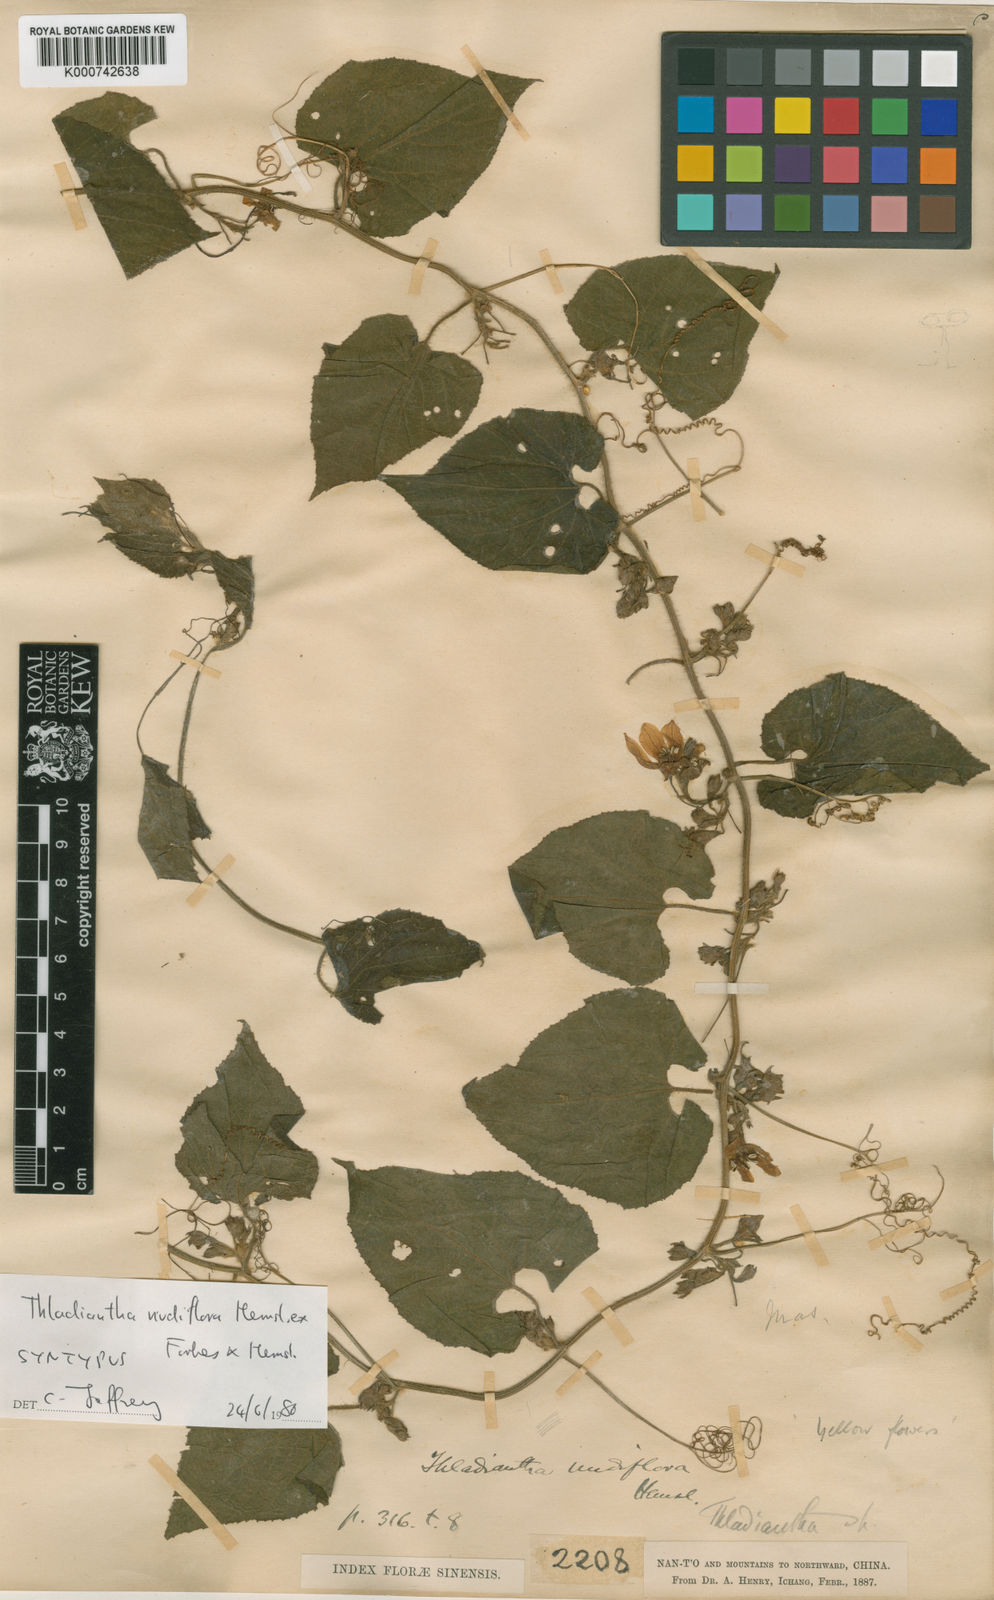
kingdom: Plantae
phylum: Tracheophyta
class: Magnoliopsida
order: Cucurbitales
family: Cucurbitaceae
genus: Thladiantha
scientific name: Thladiantha nudiflora
